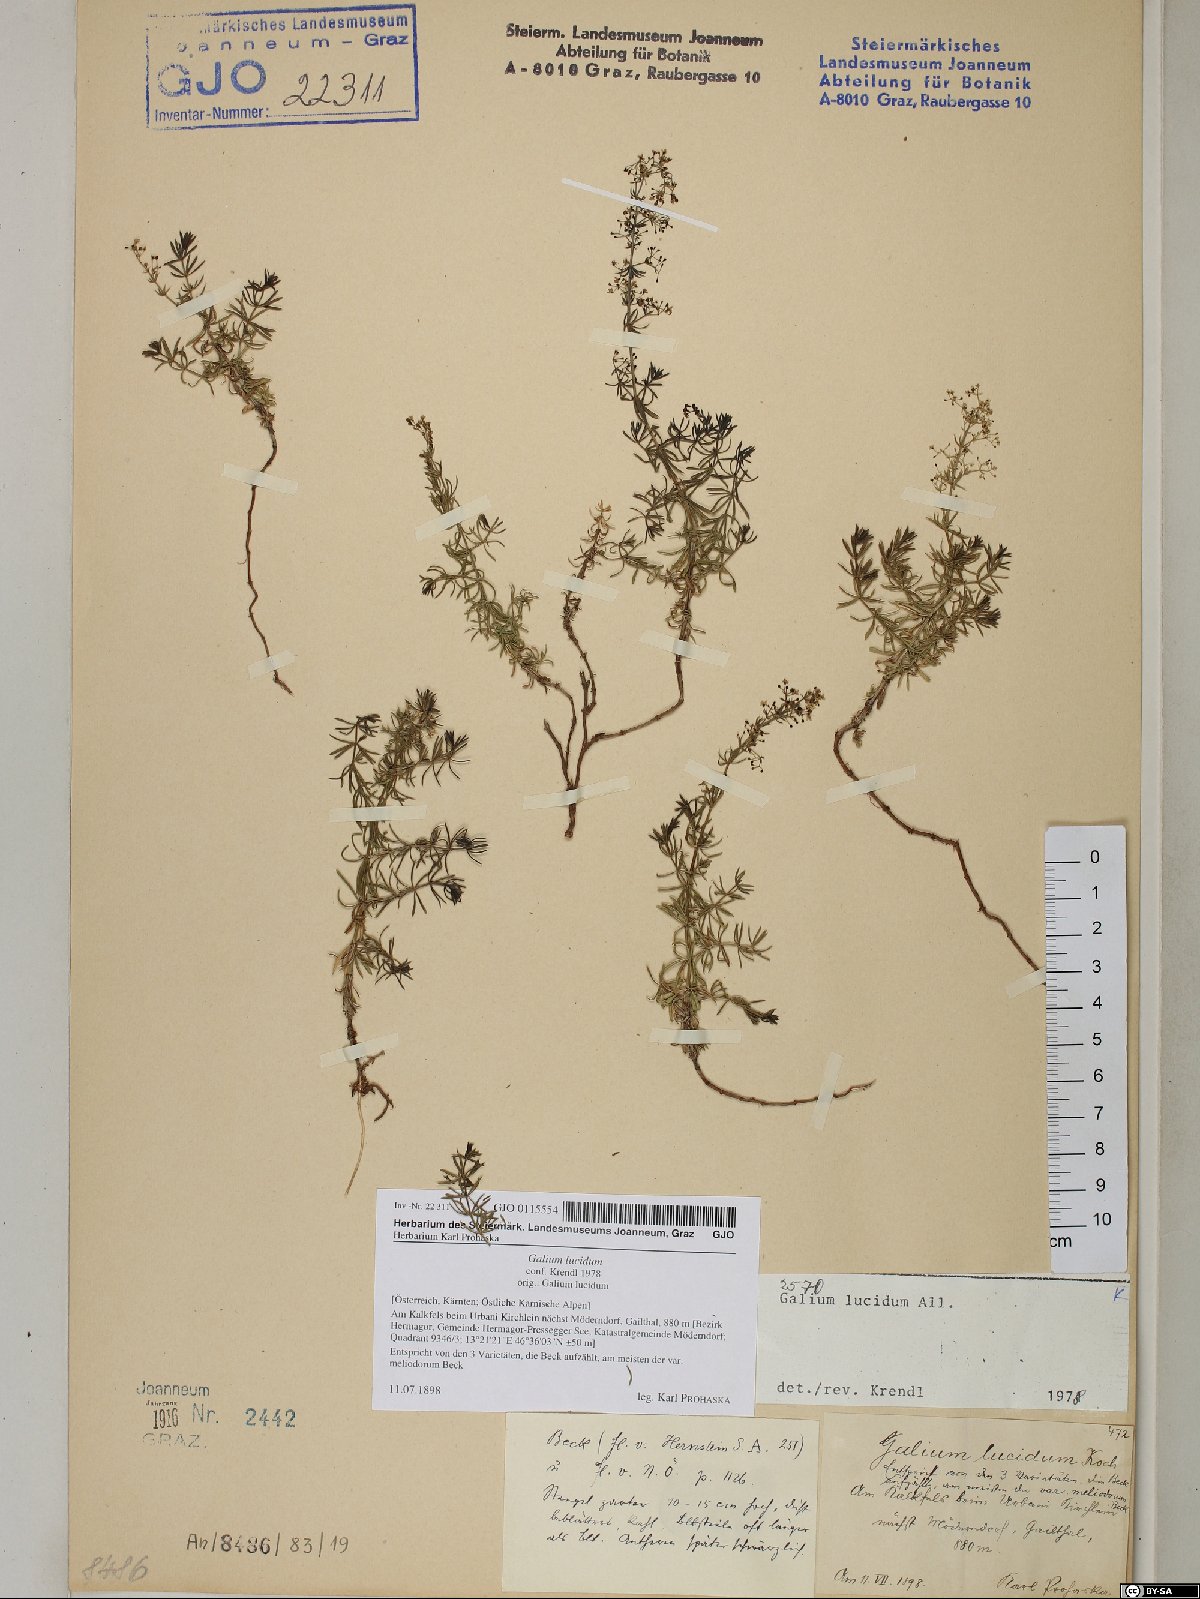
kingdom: Plantae
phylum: Tracheophyta
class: Magnoliopsida
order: Gentianales
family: Rubiaceae
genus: Galium
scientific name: Galium lucidum
